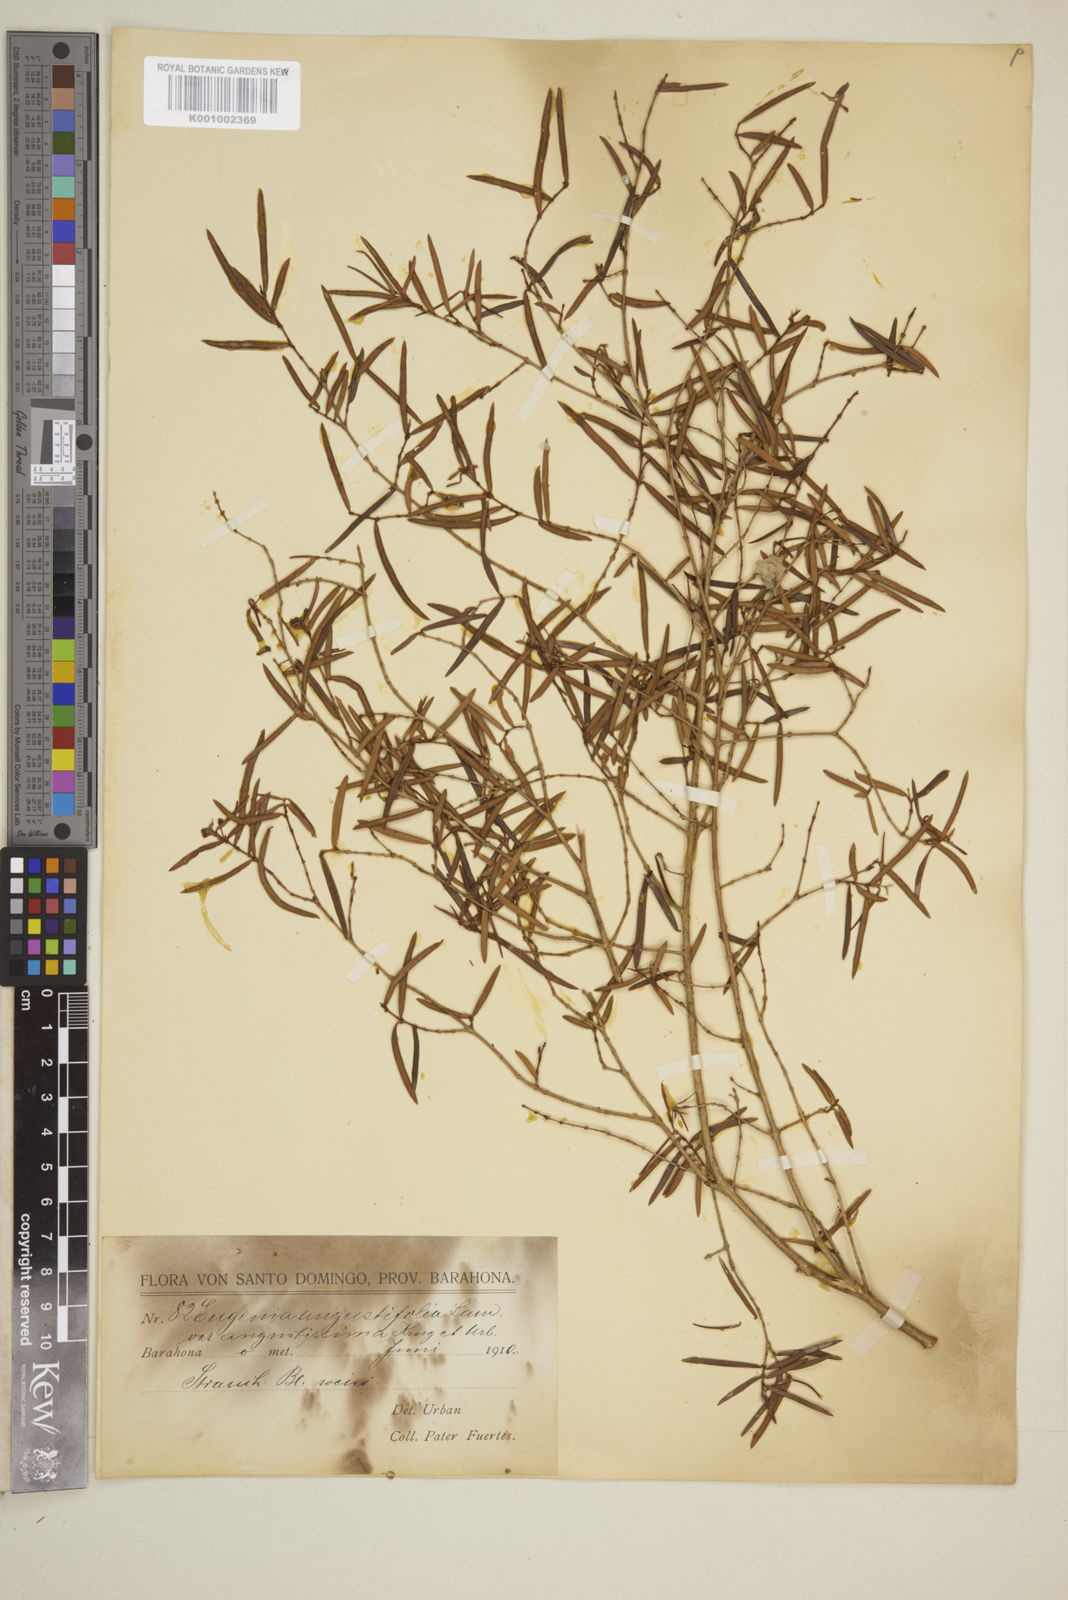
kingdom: Plantae
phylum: Tracheophyta
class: Magnoliopsida
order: Myrtales
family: Myrtaceae
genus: Eugenia
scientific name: Eugenia pomifera
